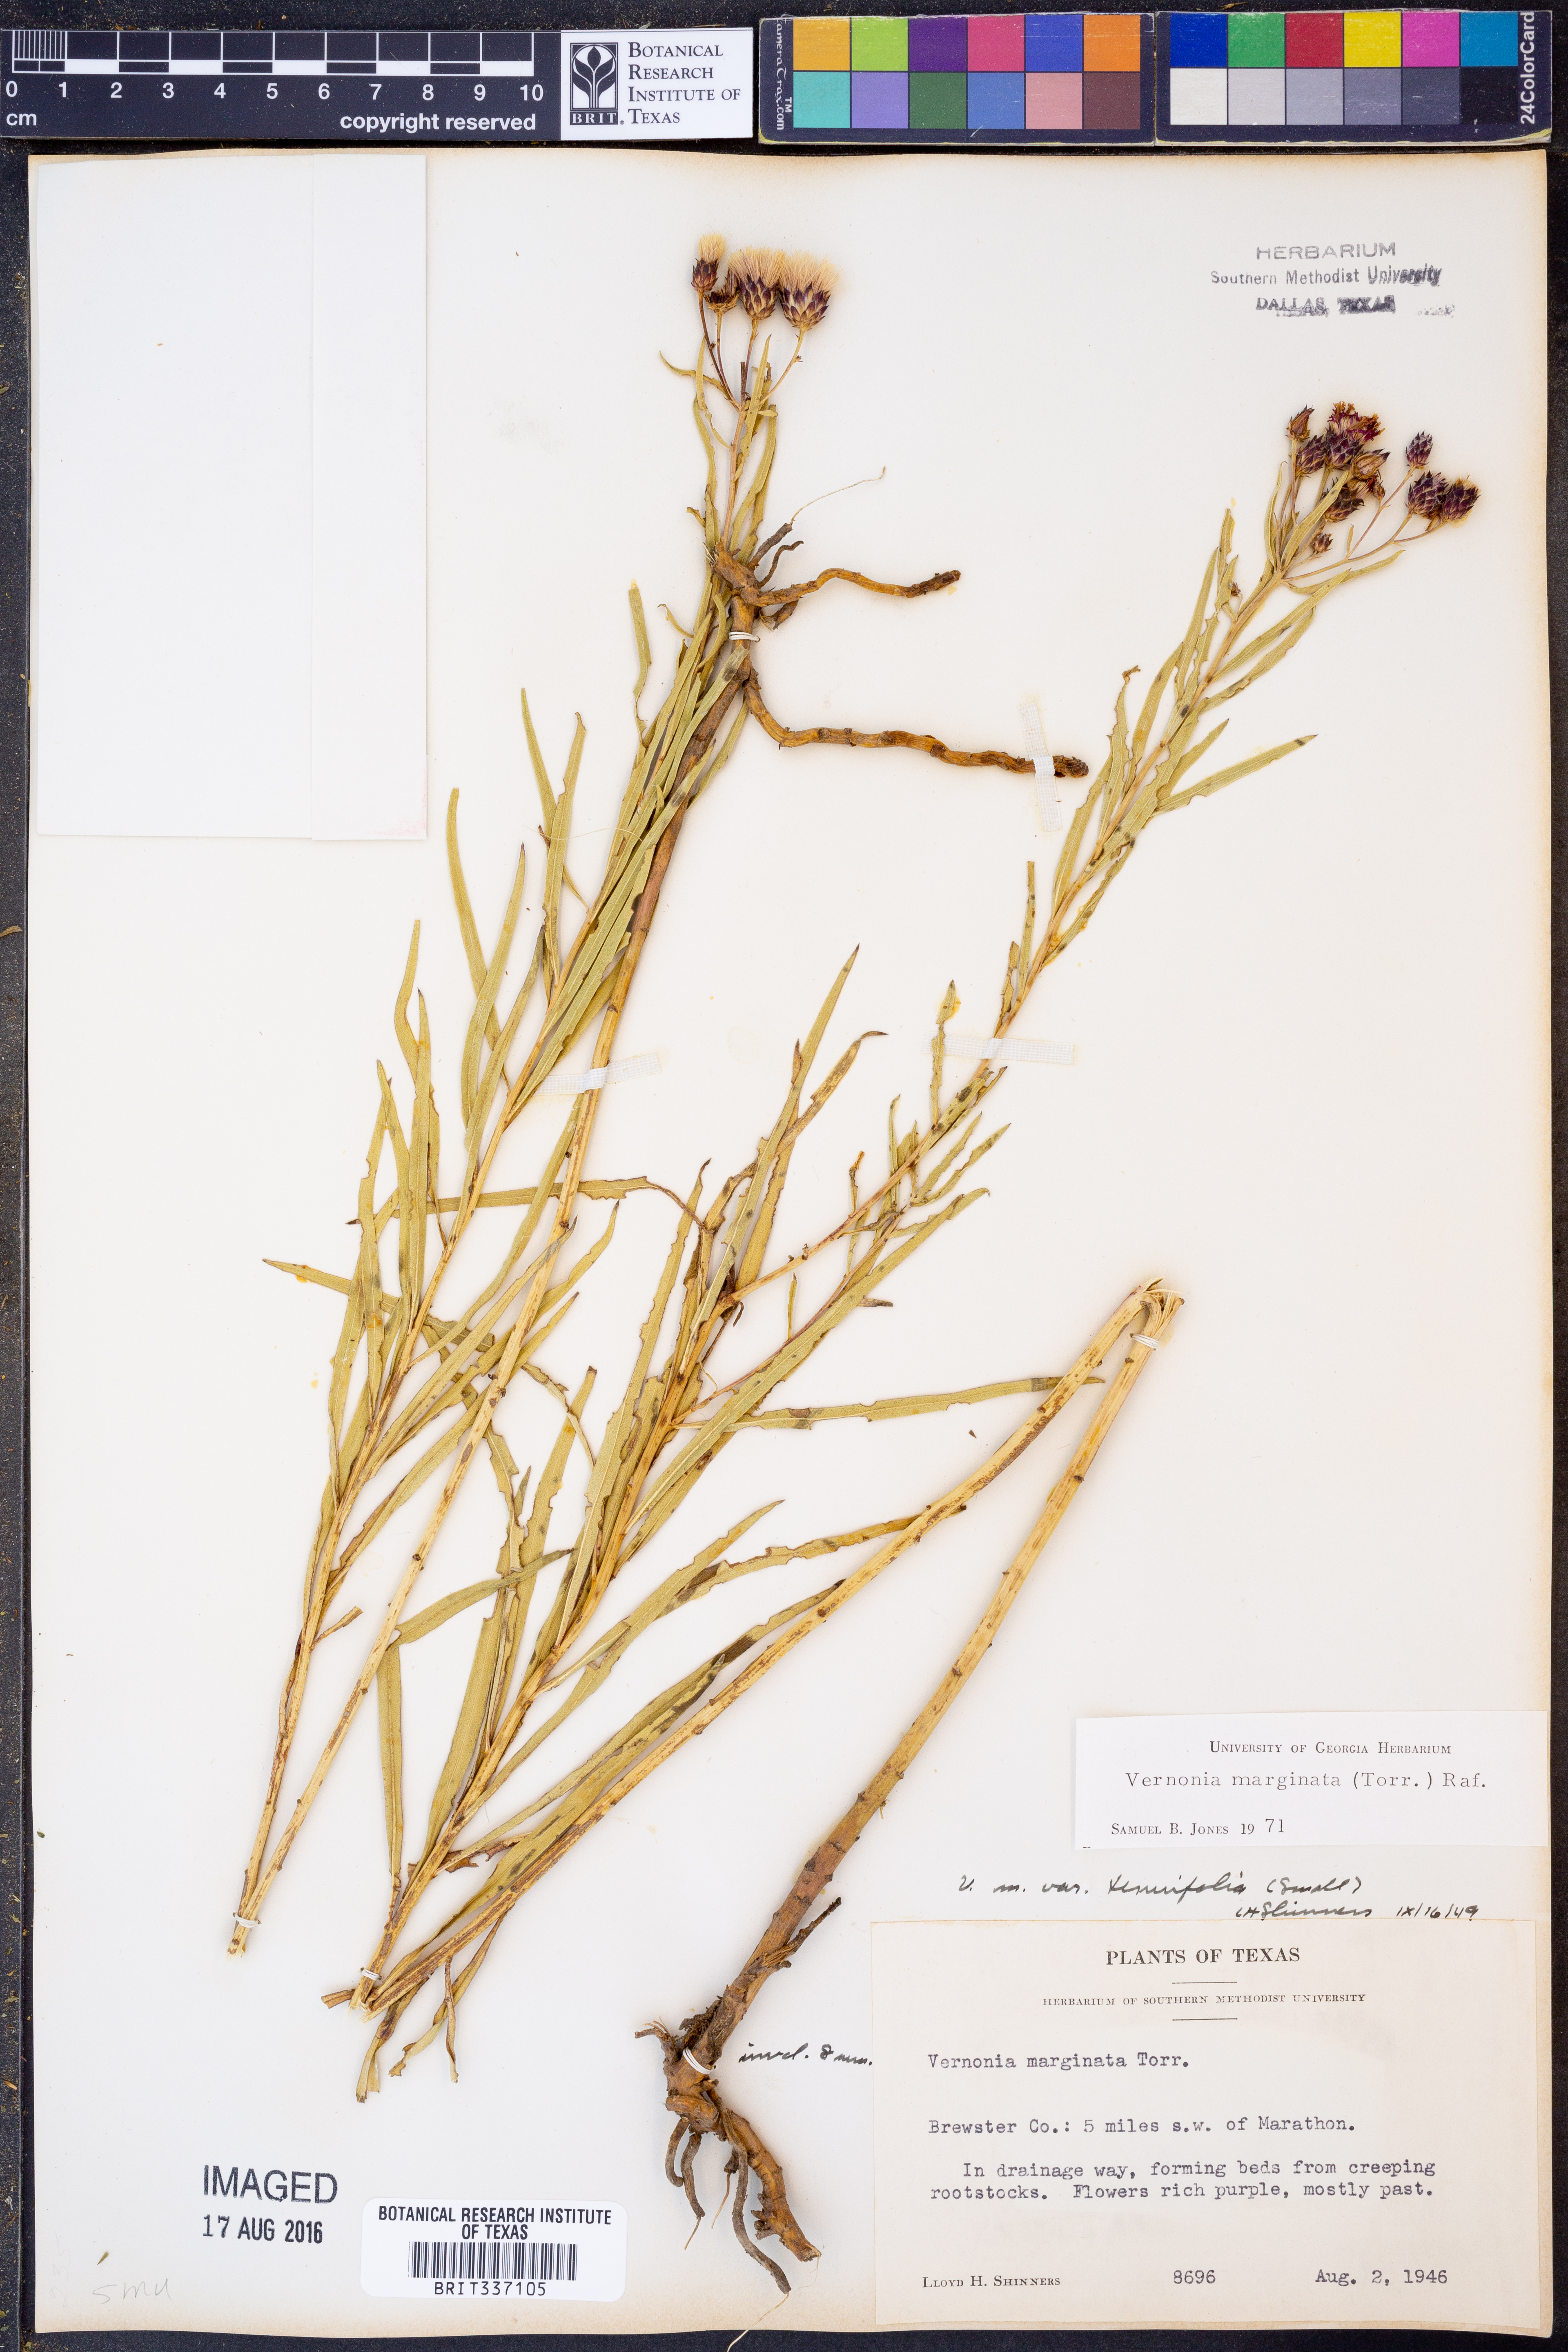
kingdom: Plantae
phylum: Tracheophyta
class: Magnoliopsida
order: Asterales
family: Asteraceae
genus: Vernonia
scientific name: Vernonia marginata
